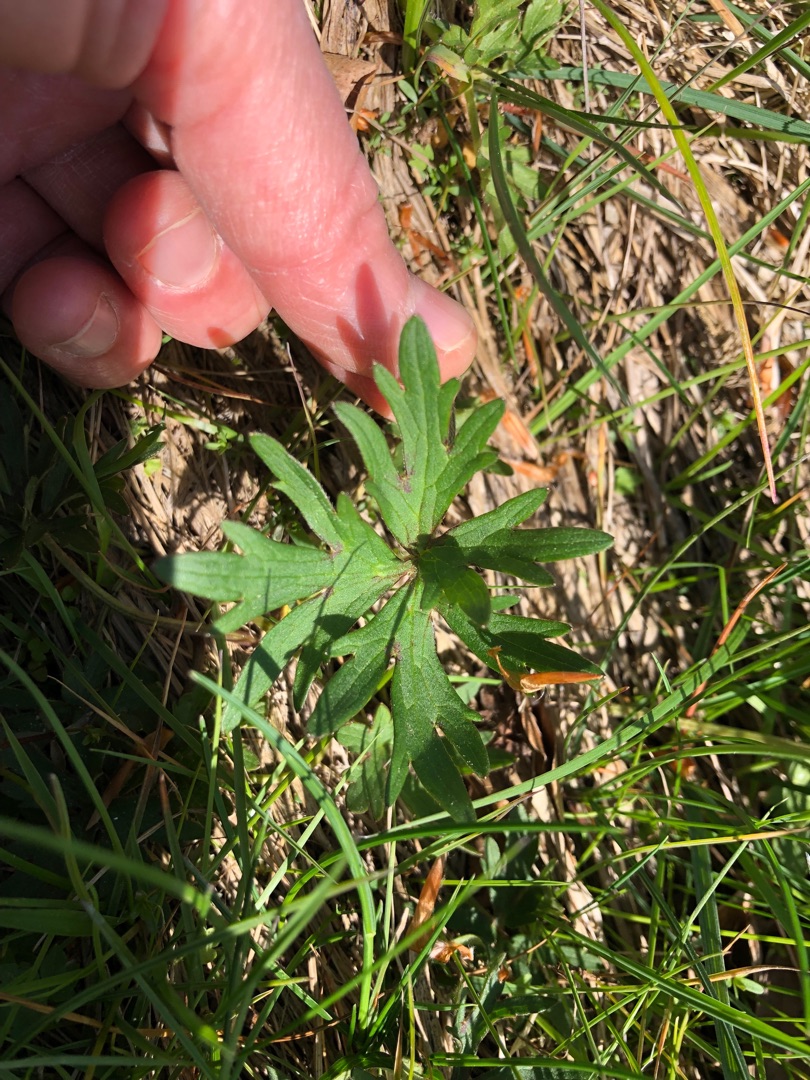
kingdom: Plantae
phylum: Tracheophyta
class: Magnoliopsida
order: Ranunculales
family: Ranunculaceae
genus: Ranunculus
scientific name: Ranunculus acris
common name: Bidende ranunkel
